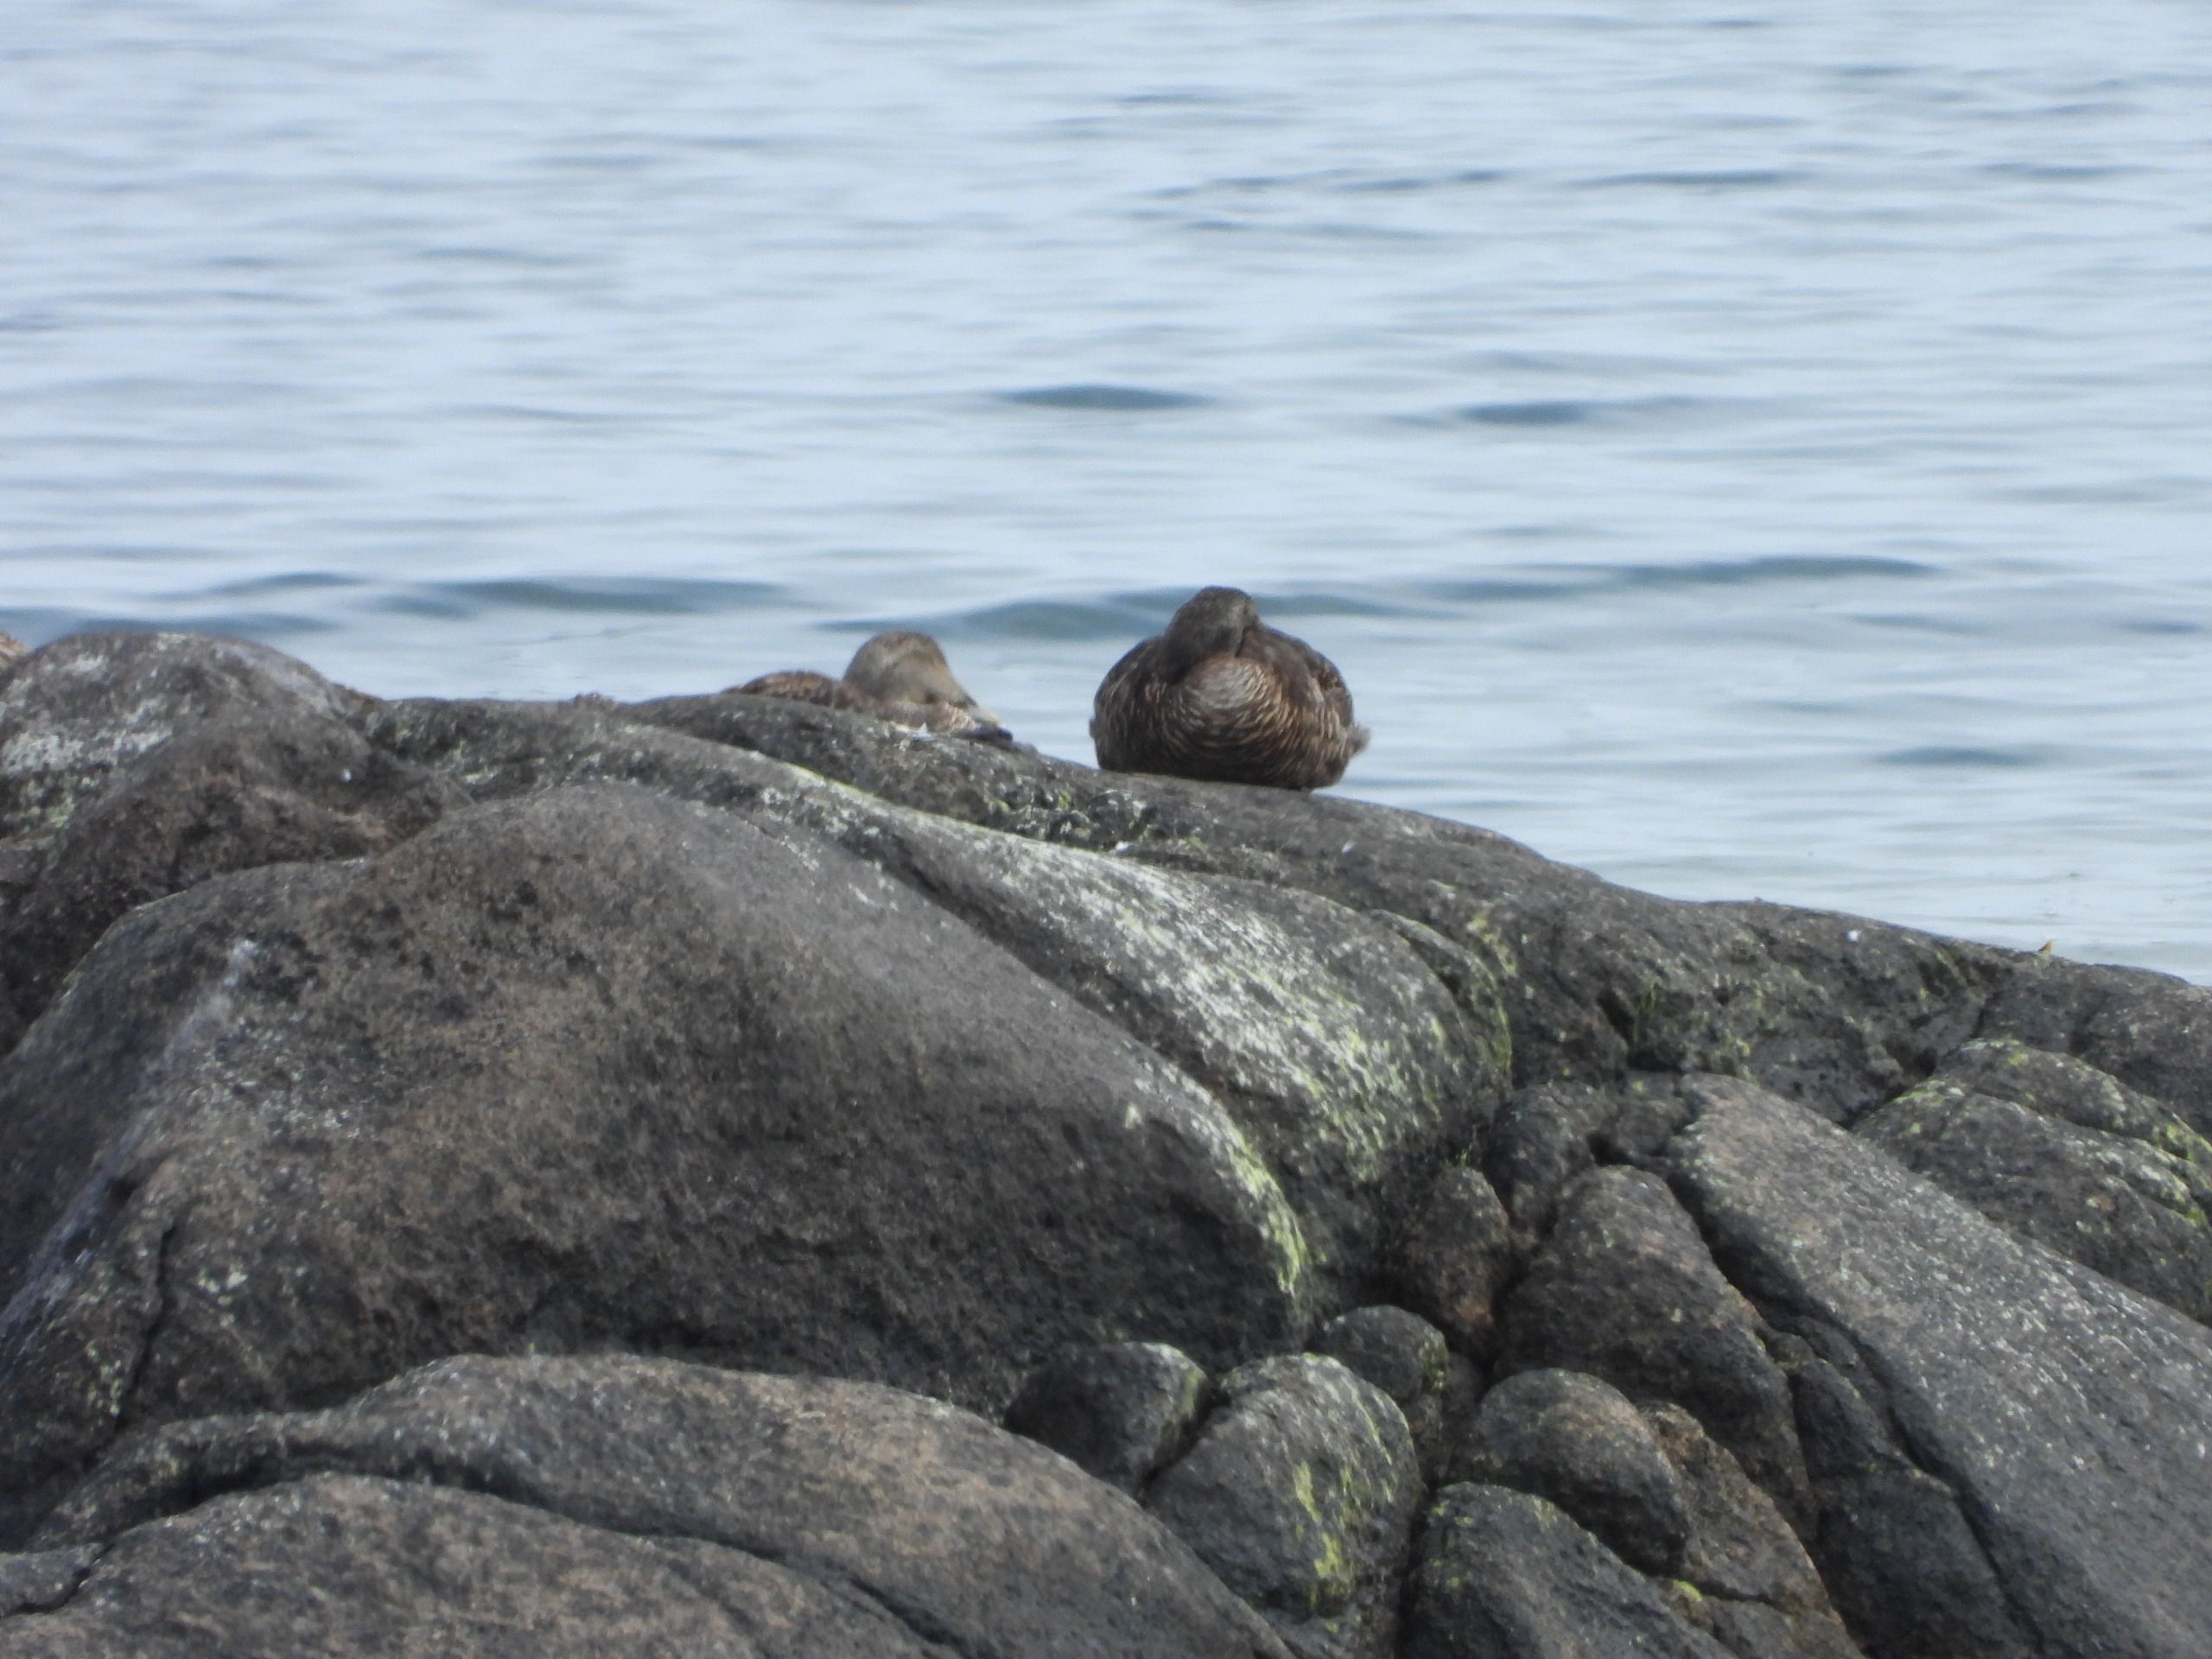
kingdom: Animalia
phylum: Chordata
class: Aves
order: Anseriformes
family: Anatidae
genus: Somateria
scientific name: Somateria mollissima
